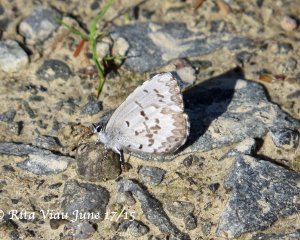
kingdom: Animalia
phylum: Arthropoda
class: Insecta
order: Lepidoptera
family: Lycaenidae
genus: Celastrina
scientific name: Celastrina
